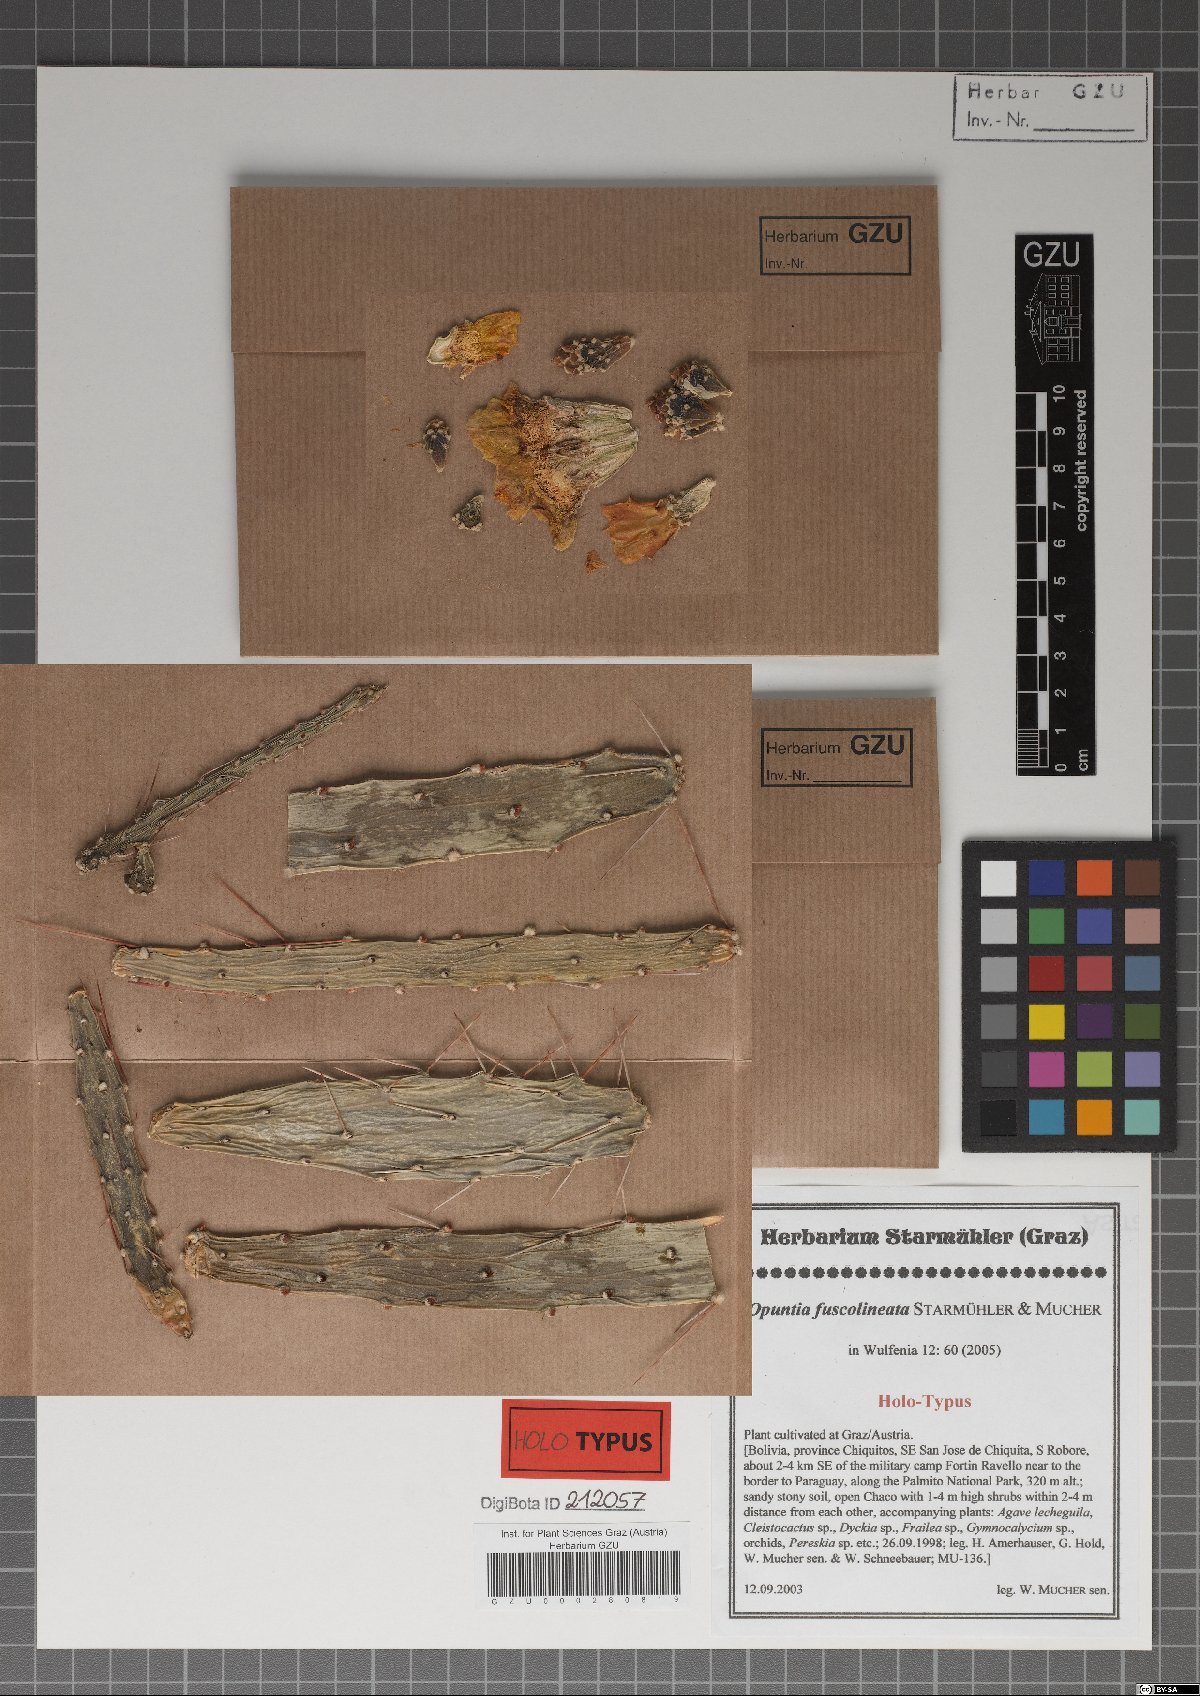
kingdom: Plantae
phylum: Tracheophyta
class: Magnoliopsida
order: Caryophyllales
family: Cactaceae
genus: Opuntia
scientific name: Opuntia elata
